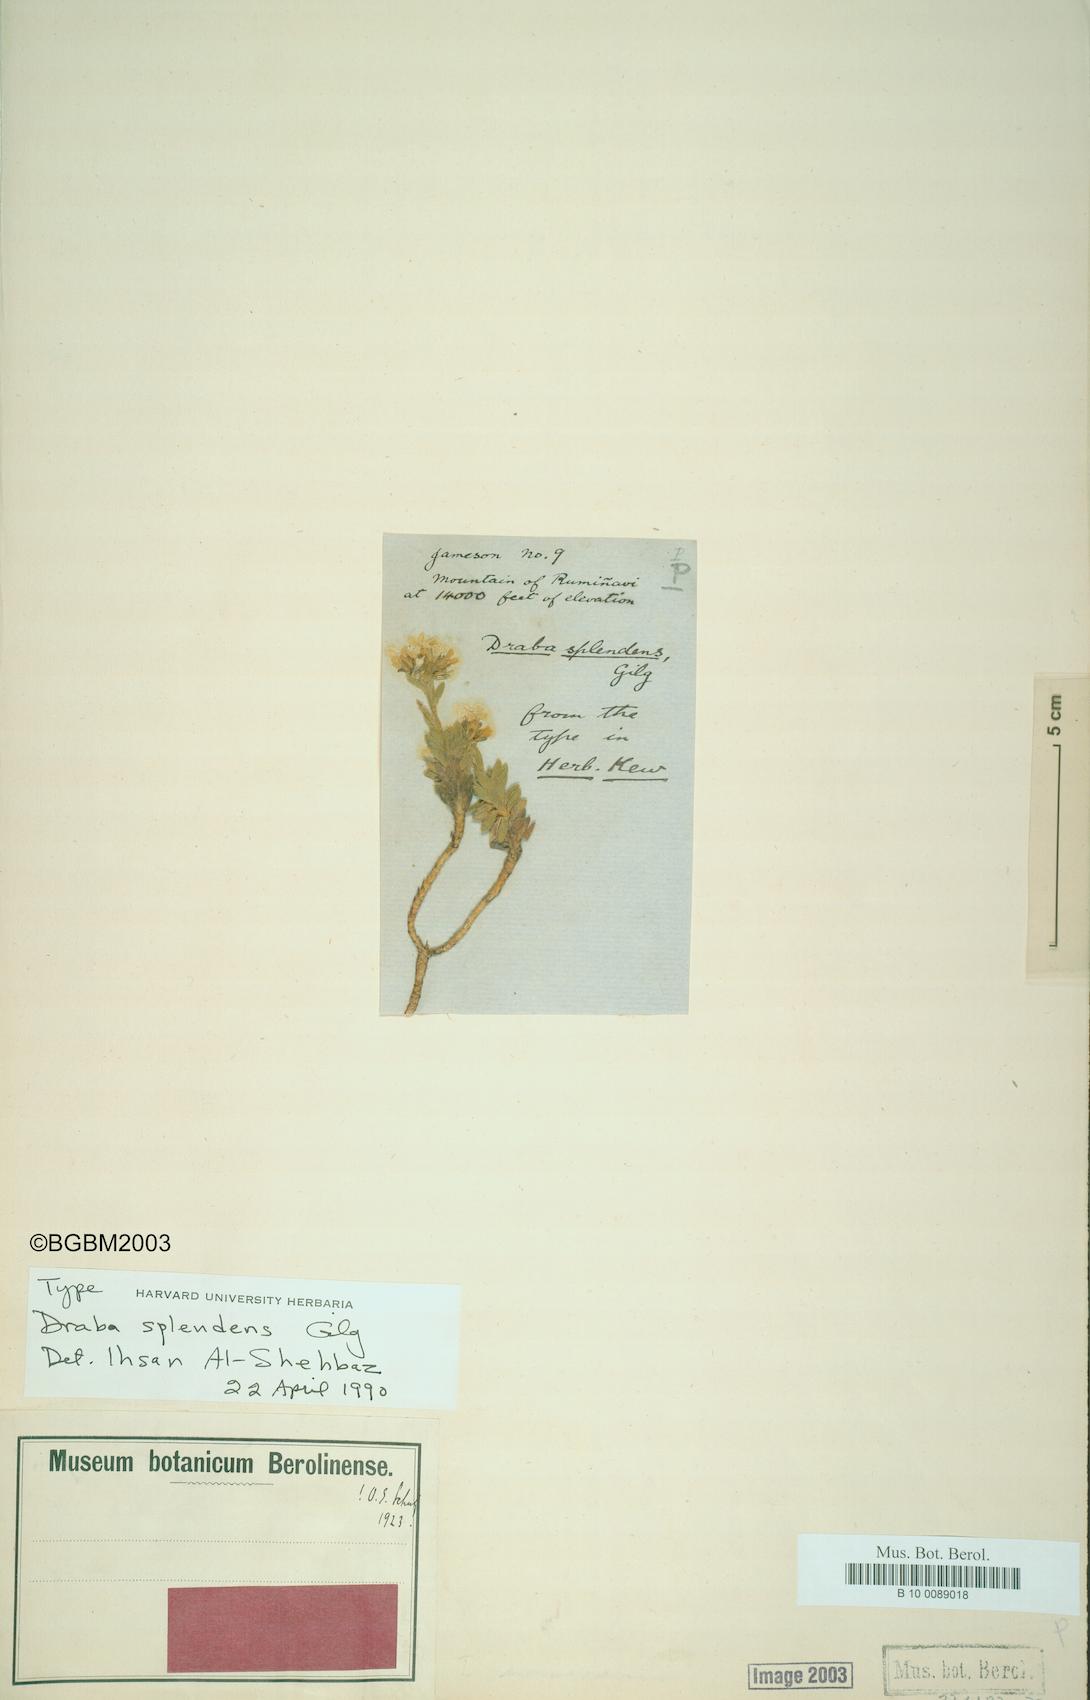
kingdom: Plantae
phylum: Tracheophyta
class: Magnoliopsida
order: Brassicales
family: Brassicaceae
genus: Draba
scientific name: Draba splendens
